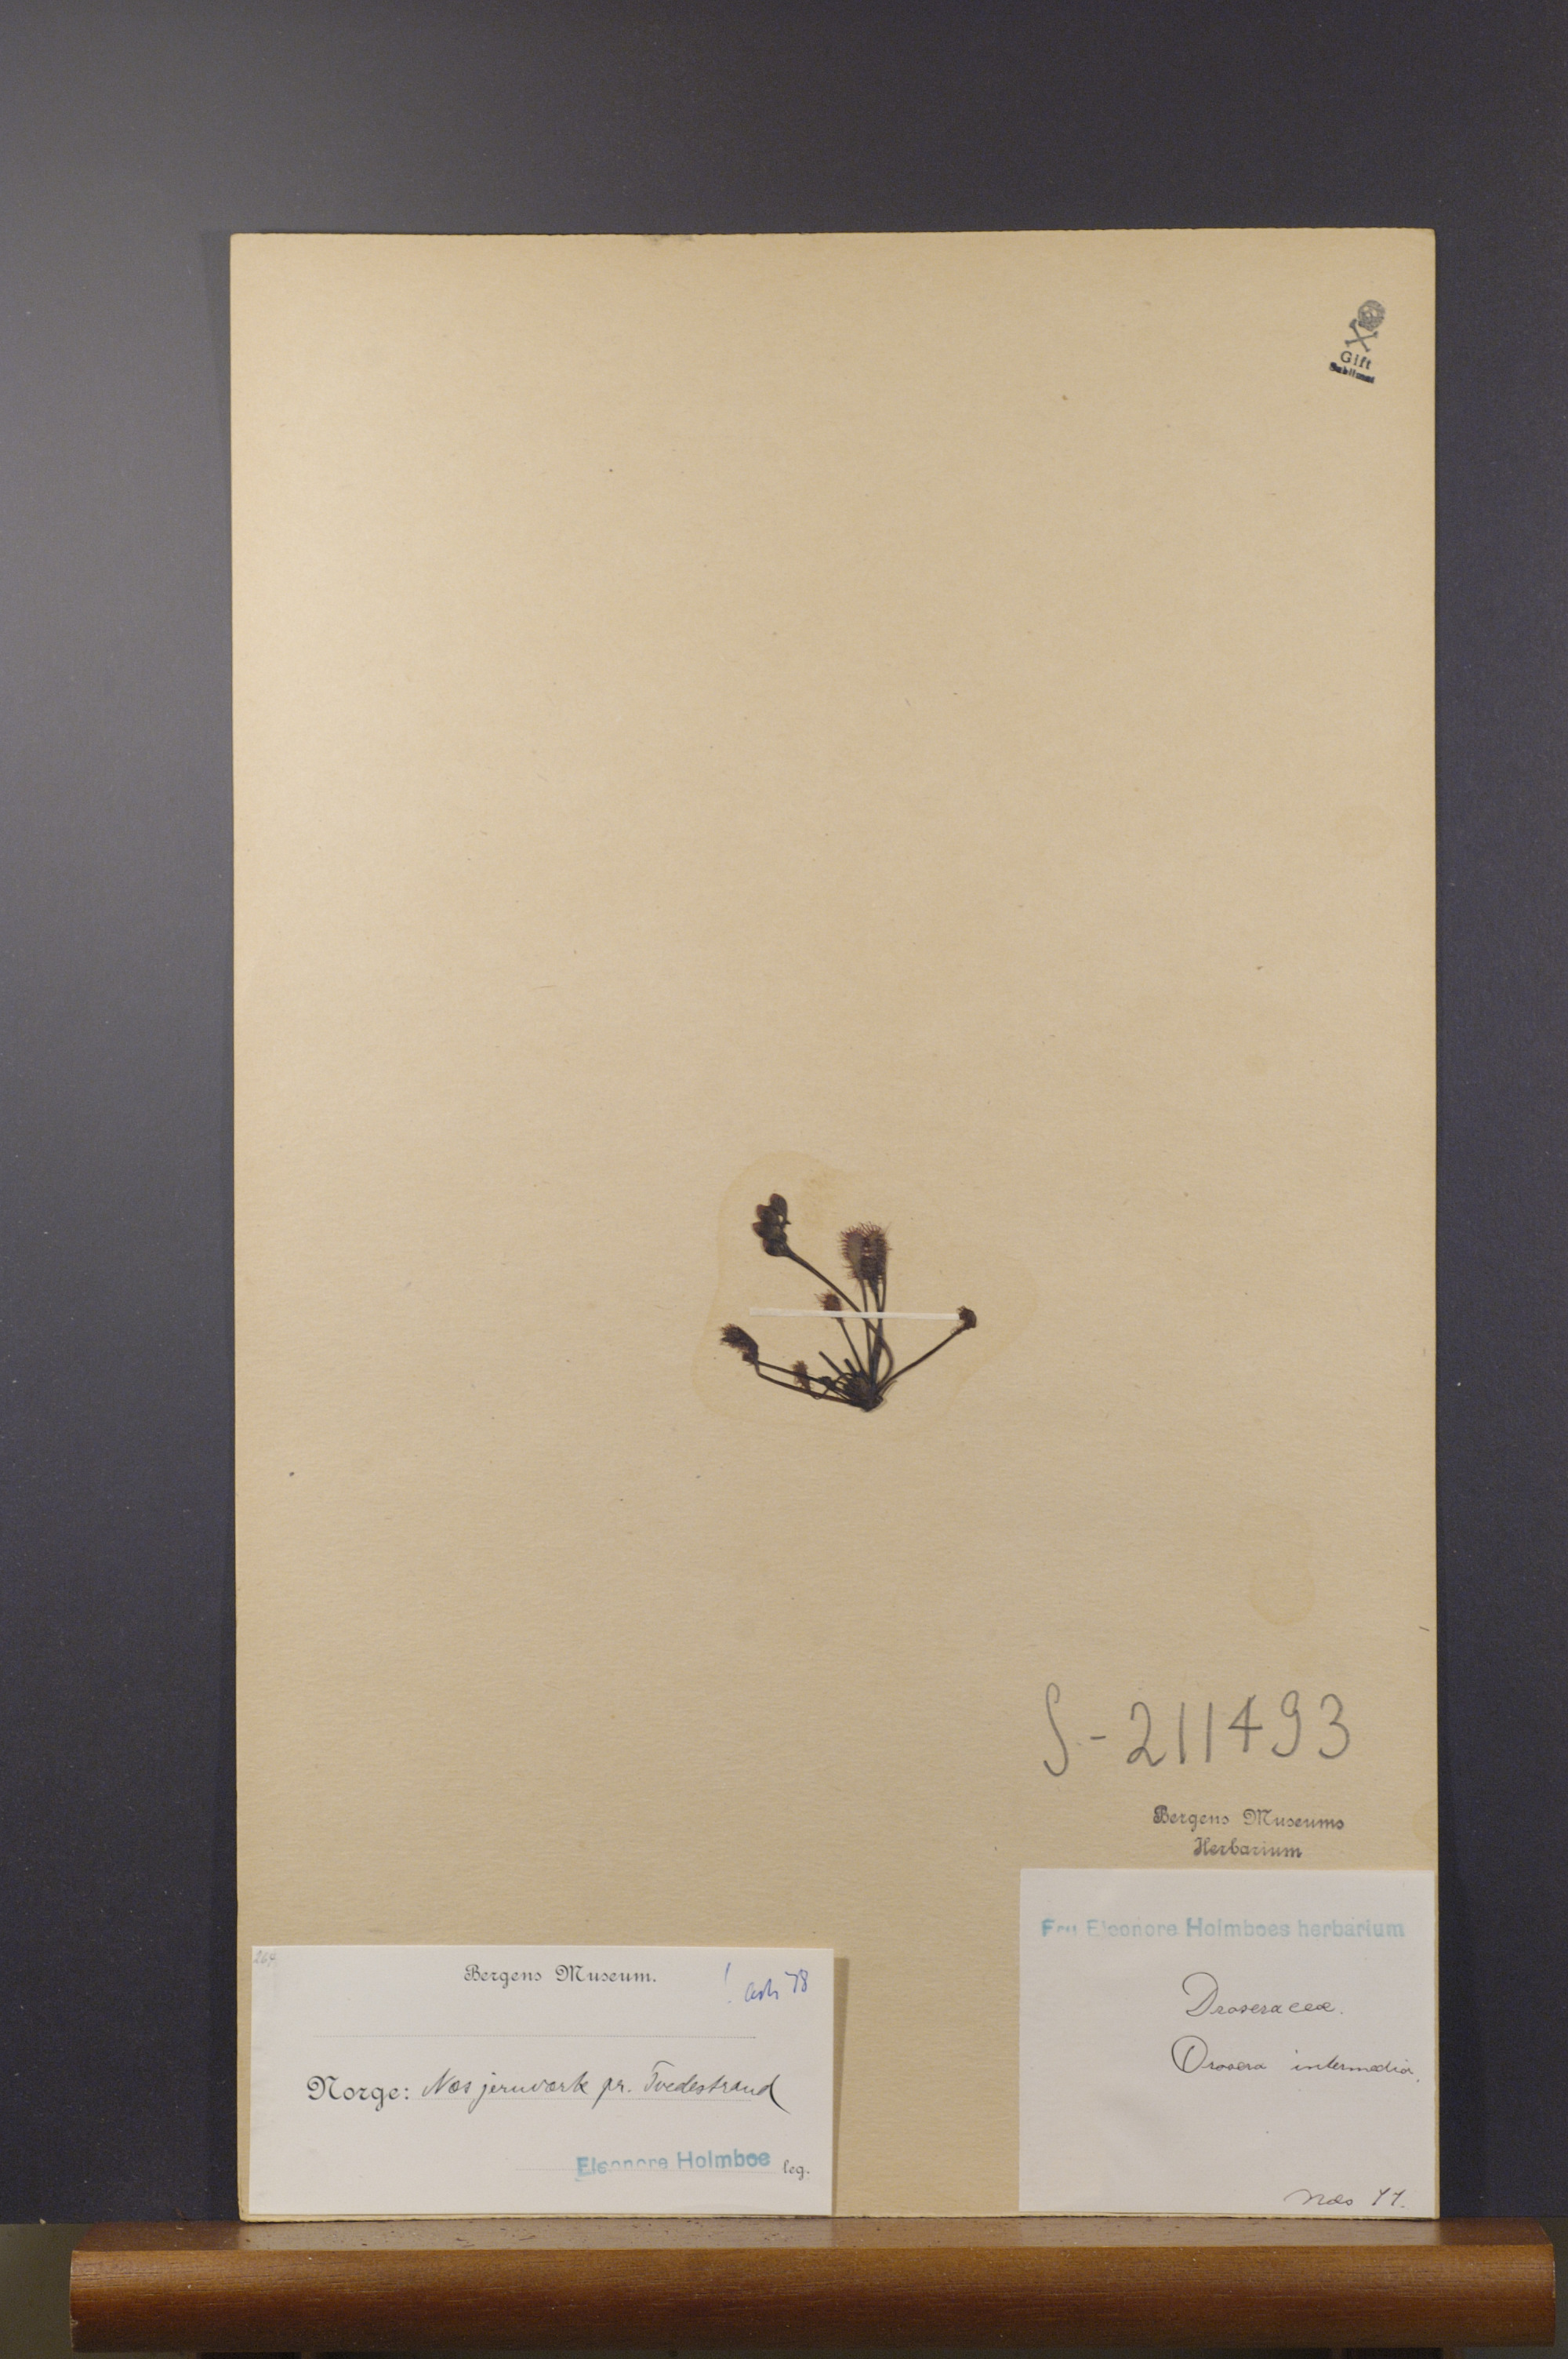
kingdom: Plantae
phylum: Tracheophyta
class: Magnoliopsida
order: Caryophyllales
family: Droseraceae
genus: Drosera
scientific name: Drosera intermedia
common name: Oblong-leaved sundew
